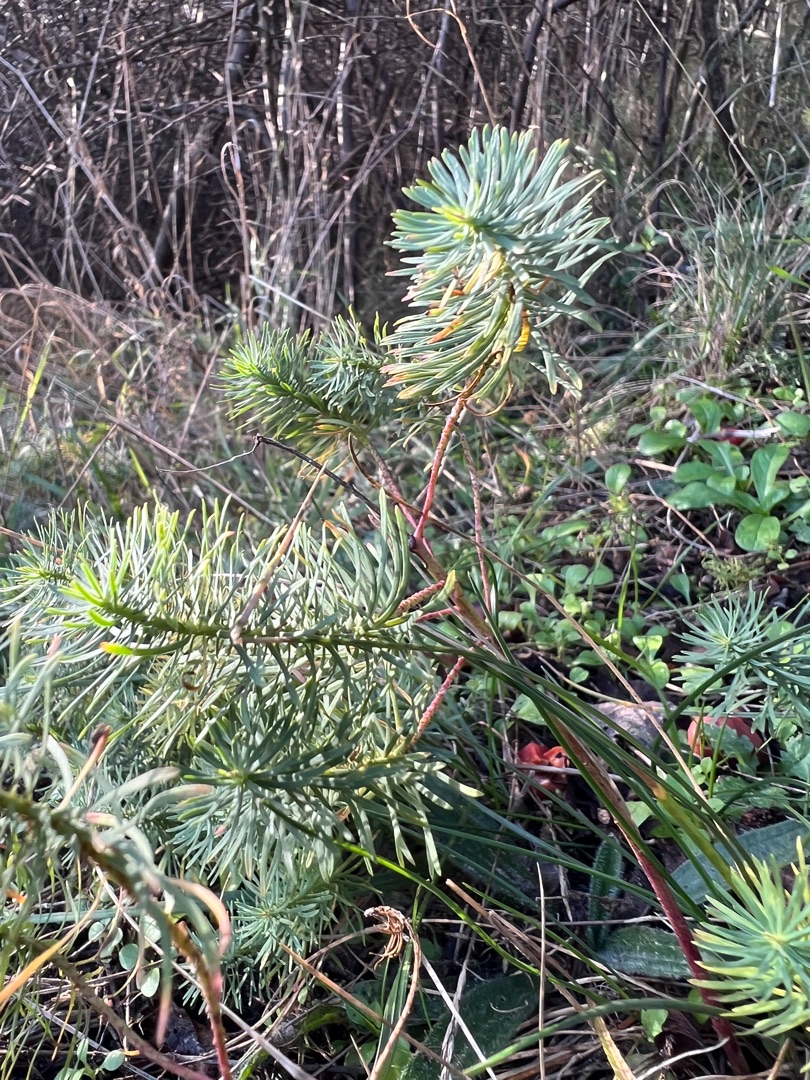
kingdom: Plantae
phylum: Tracheophyta
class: Magnoliopsida
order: Malpighiales
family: Euphorbiaceae
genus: Euphorbia
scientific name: Euphorbia cyparissias
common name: Cypres-vortemælk
